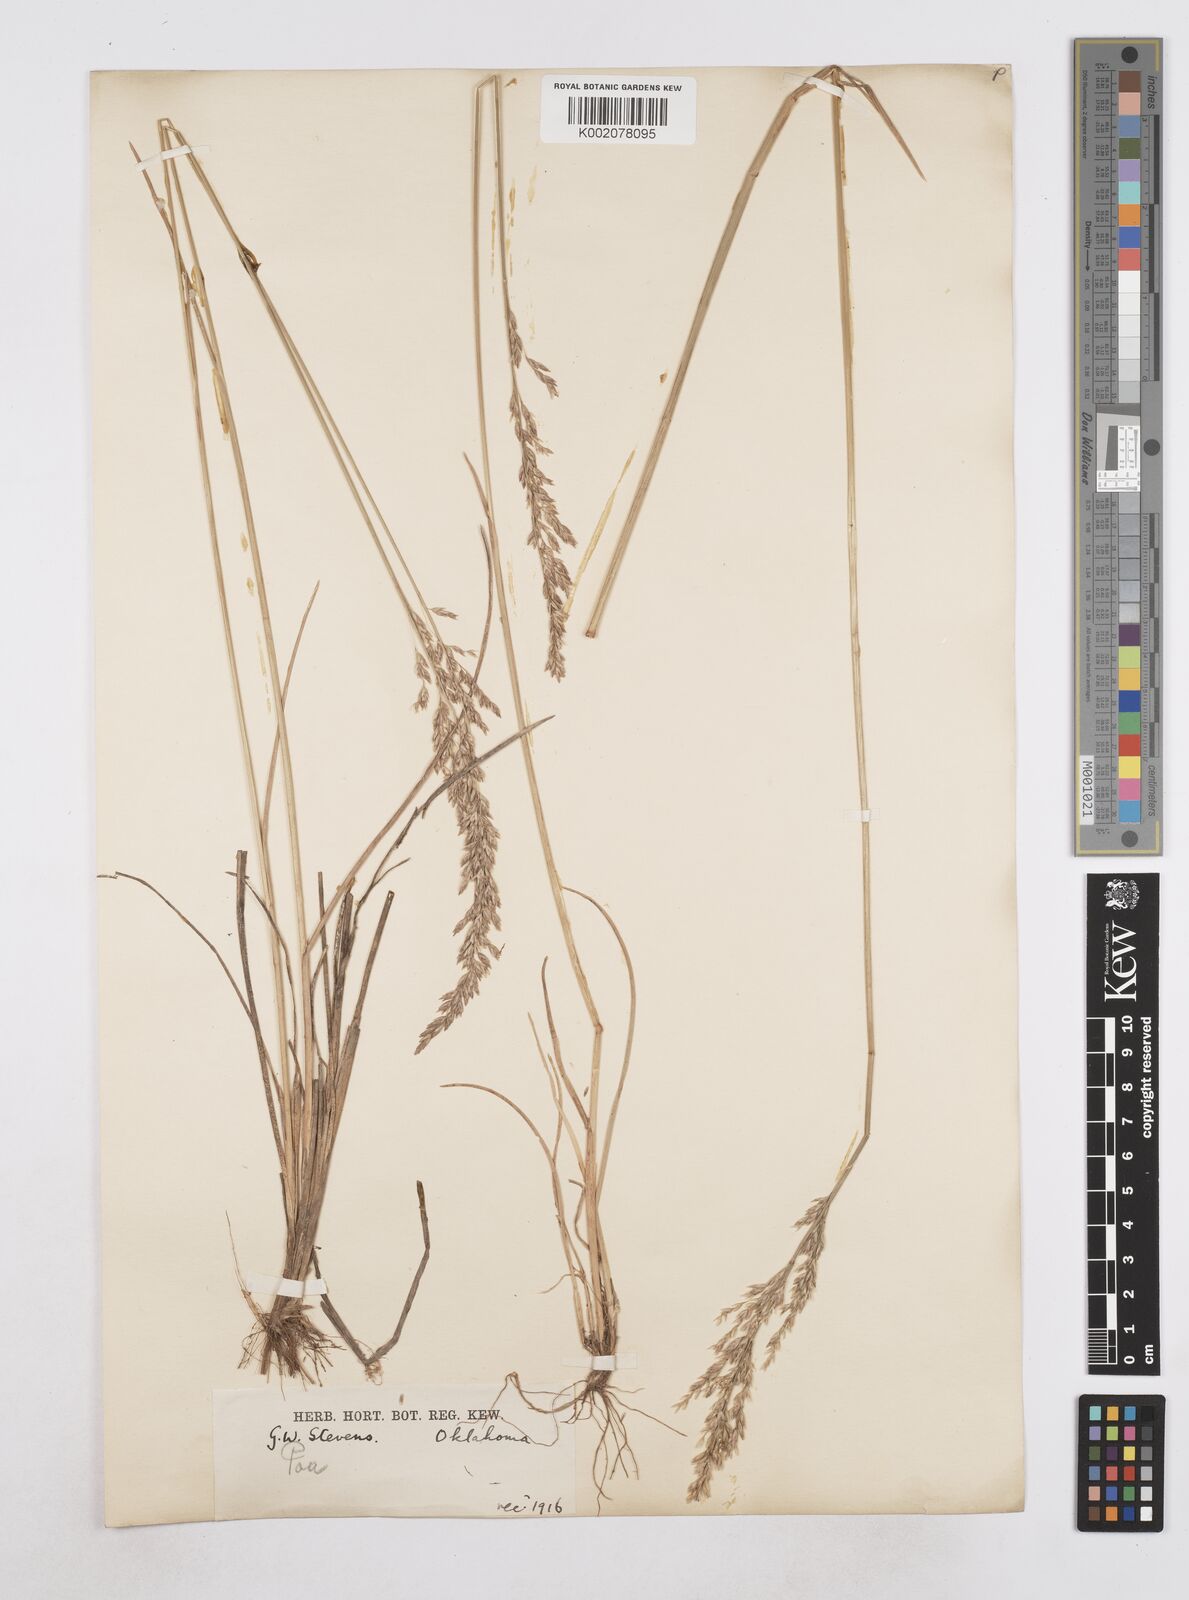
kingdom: Plantae
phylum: Tracheophyta
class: Liliopsida
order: Poales
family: Poaceae
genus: Poa
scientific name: Poa
